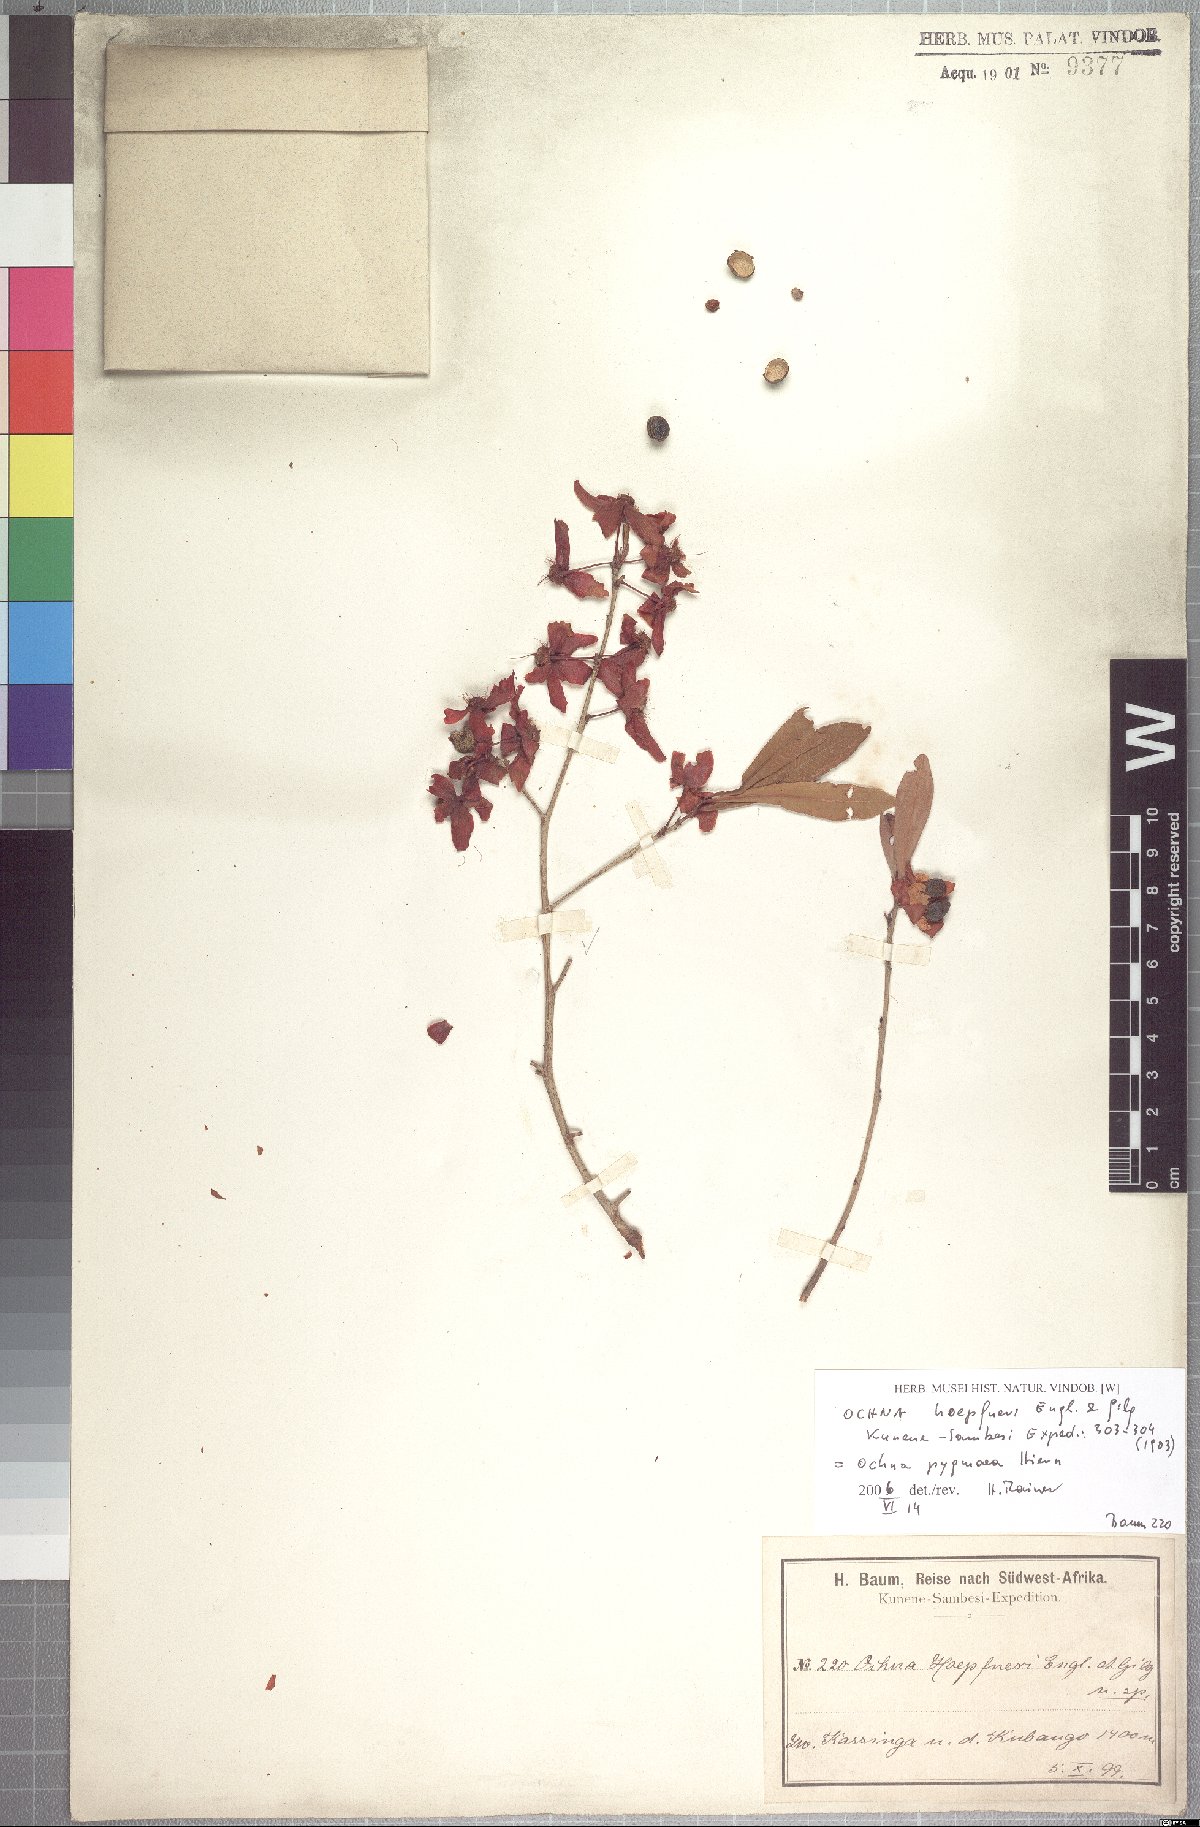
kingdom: Plantae
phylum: Tracheophyta
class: Magnoliopsida
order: Malpighiales
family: Ochnaceae
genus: Ochna
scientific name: Ochna pygmaea
